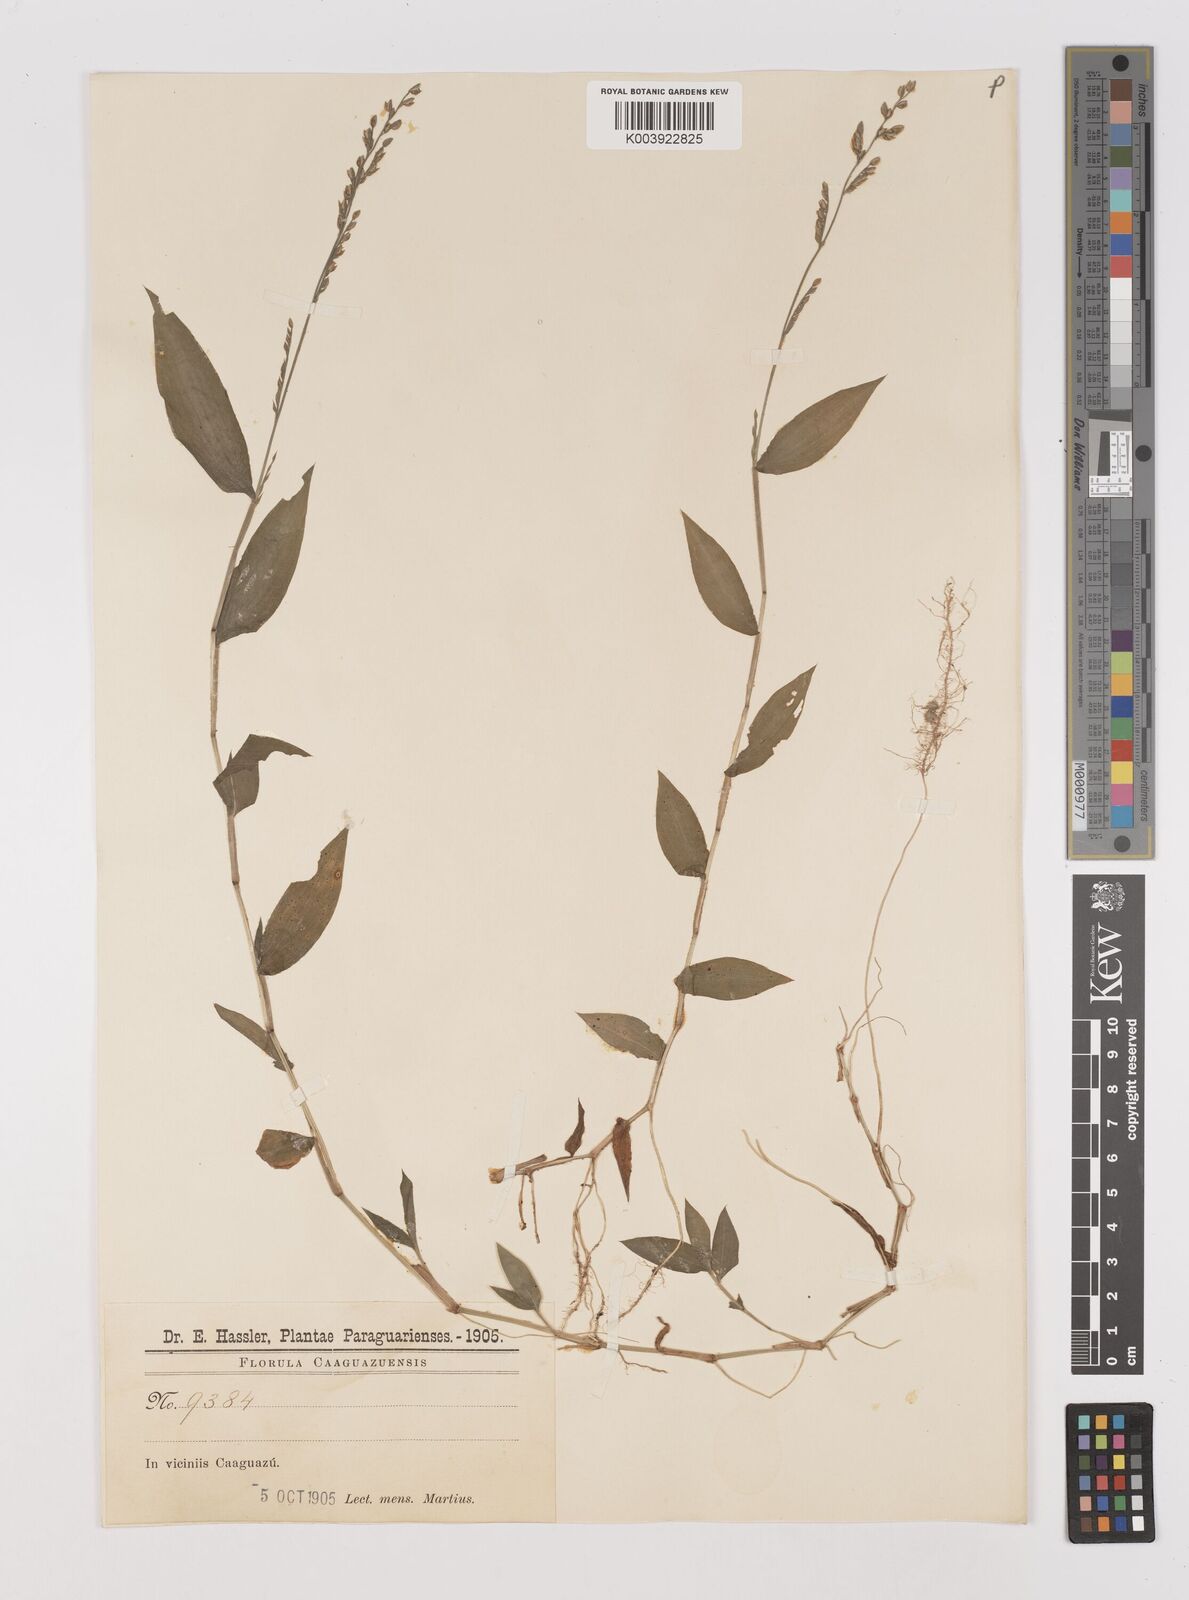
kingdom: Plantae
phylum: Tracheophyta
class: Liliopsida
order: Poales
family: Poaceae
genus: Pseudechinolaena
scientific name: Pseudechinolaena polystachya
